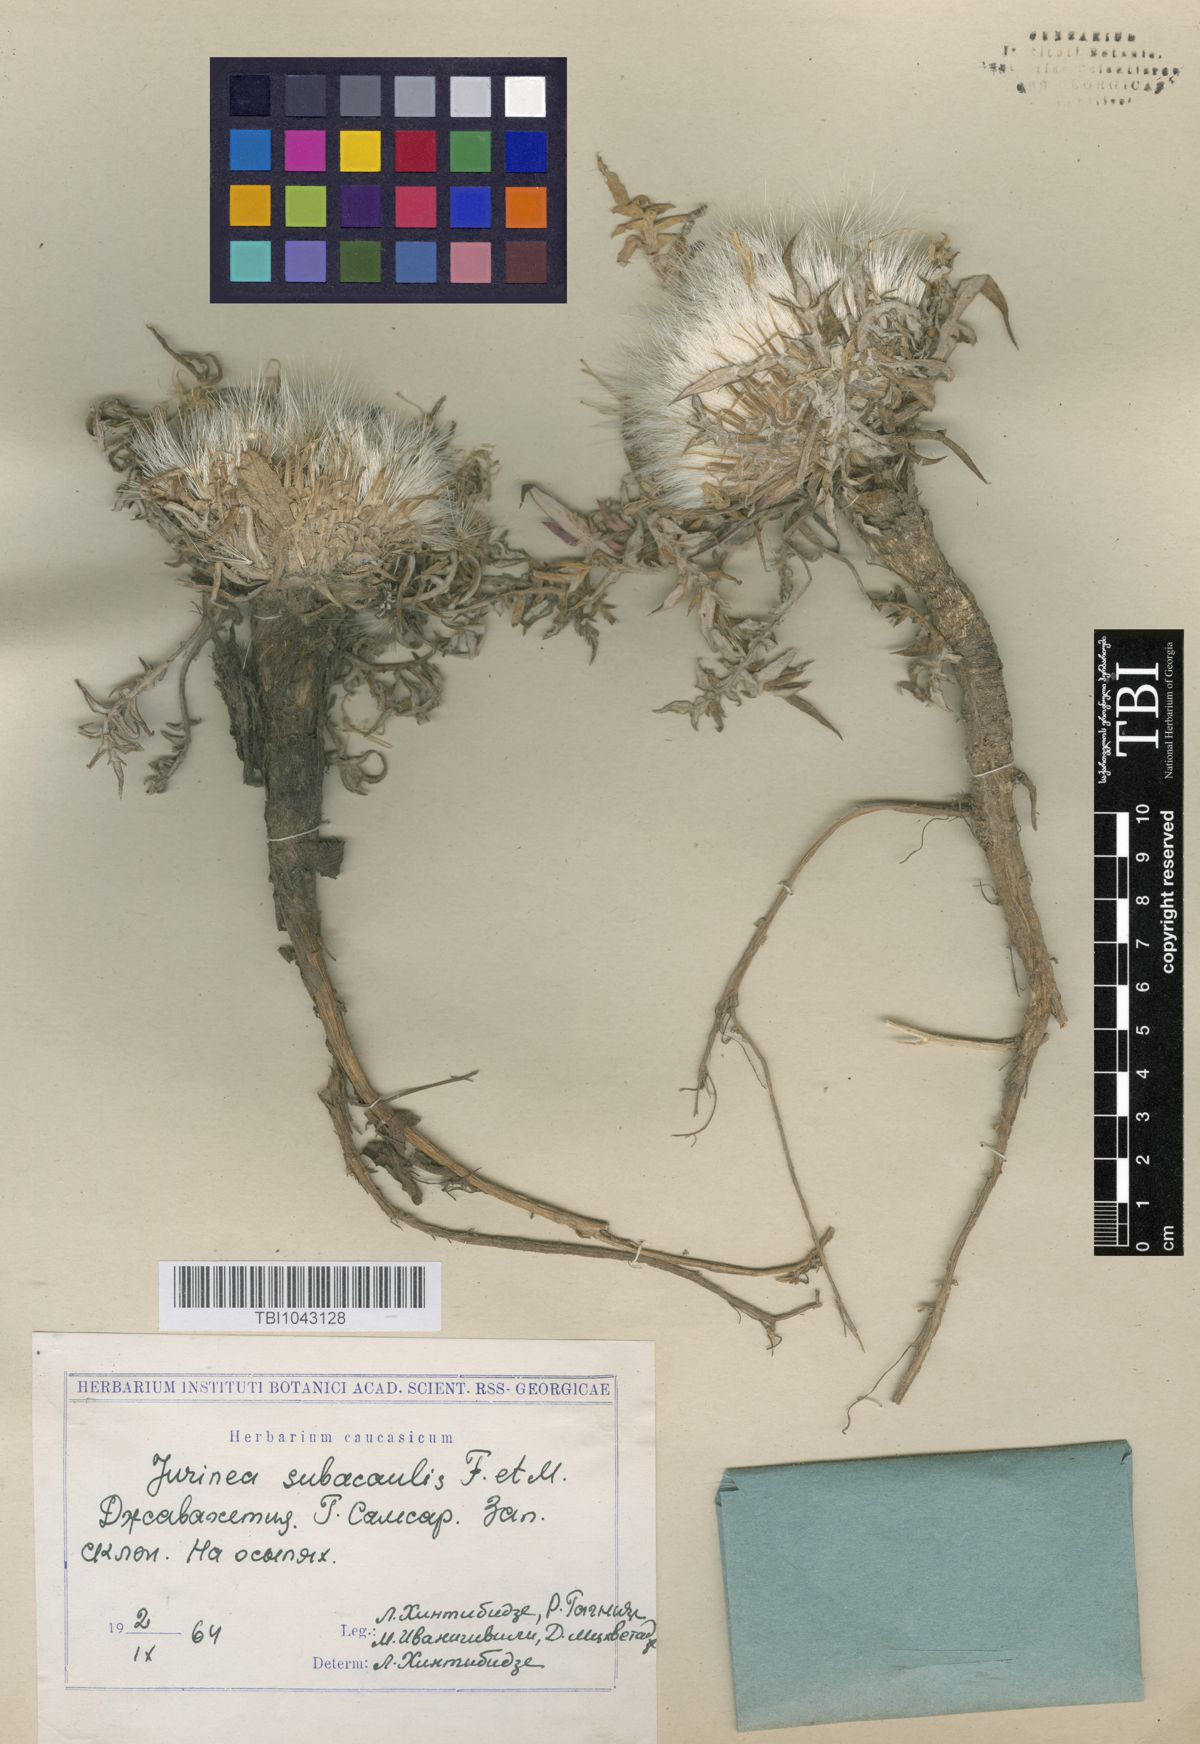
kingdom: Plantae
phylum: Tracheophyta
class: Magnoliopsida
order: Asterales
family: Asteraceae
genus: Jurinea
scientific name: Jurinea moschus
